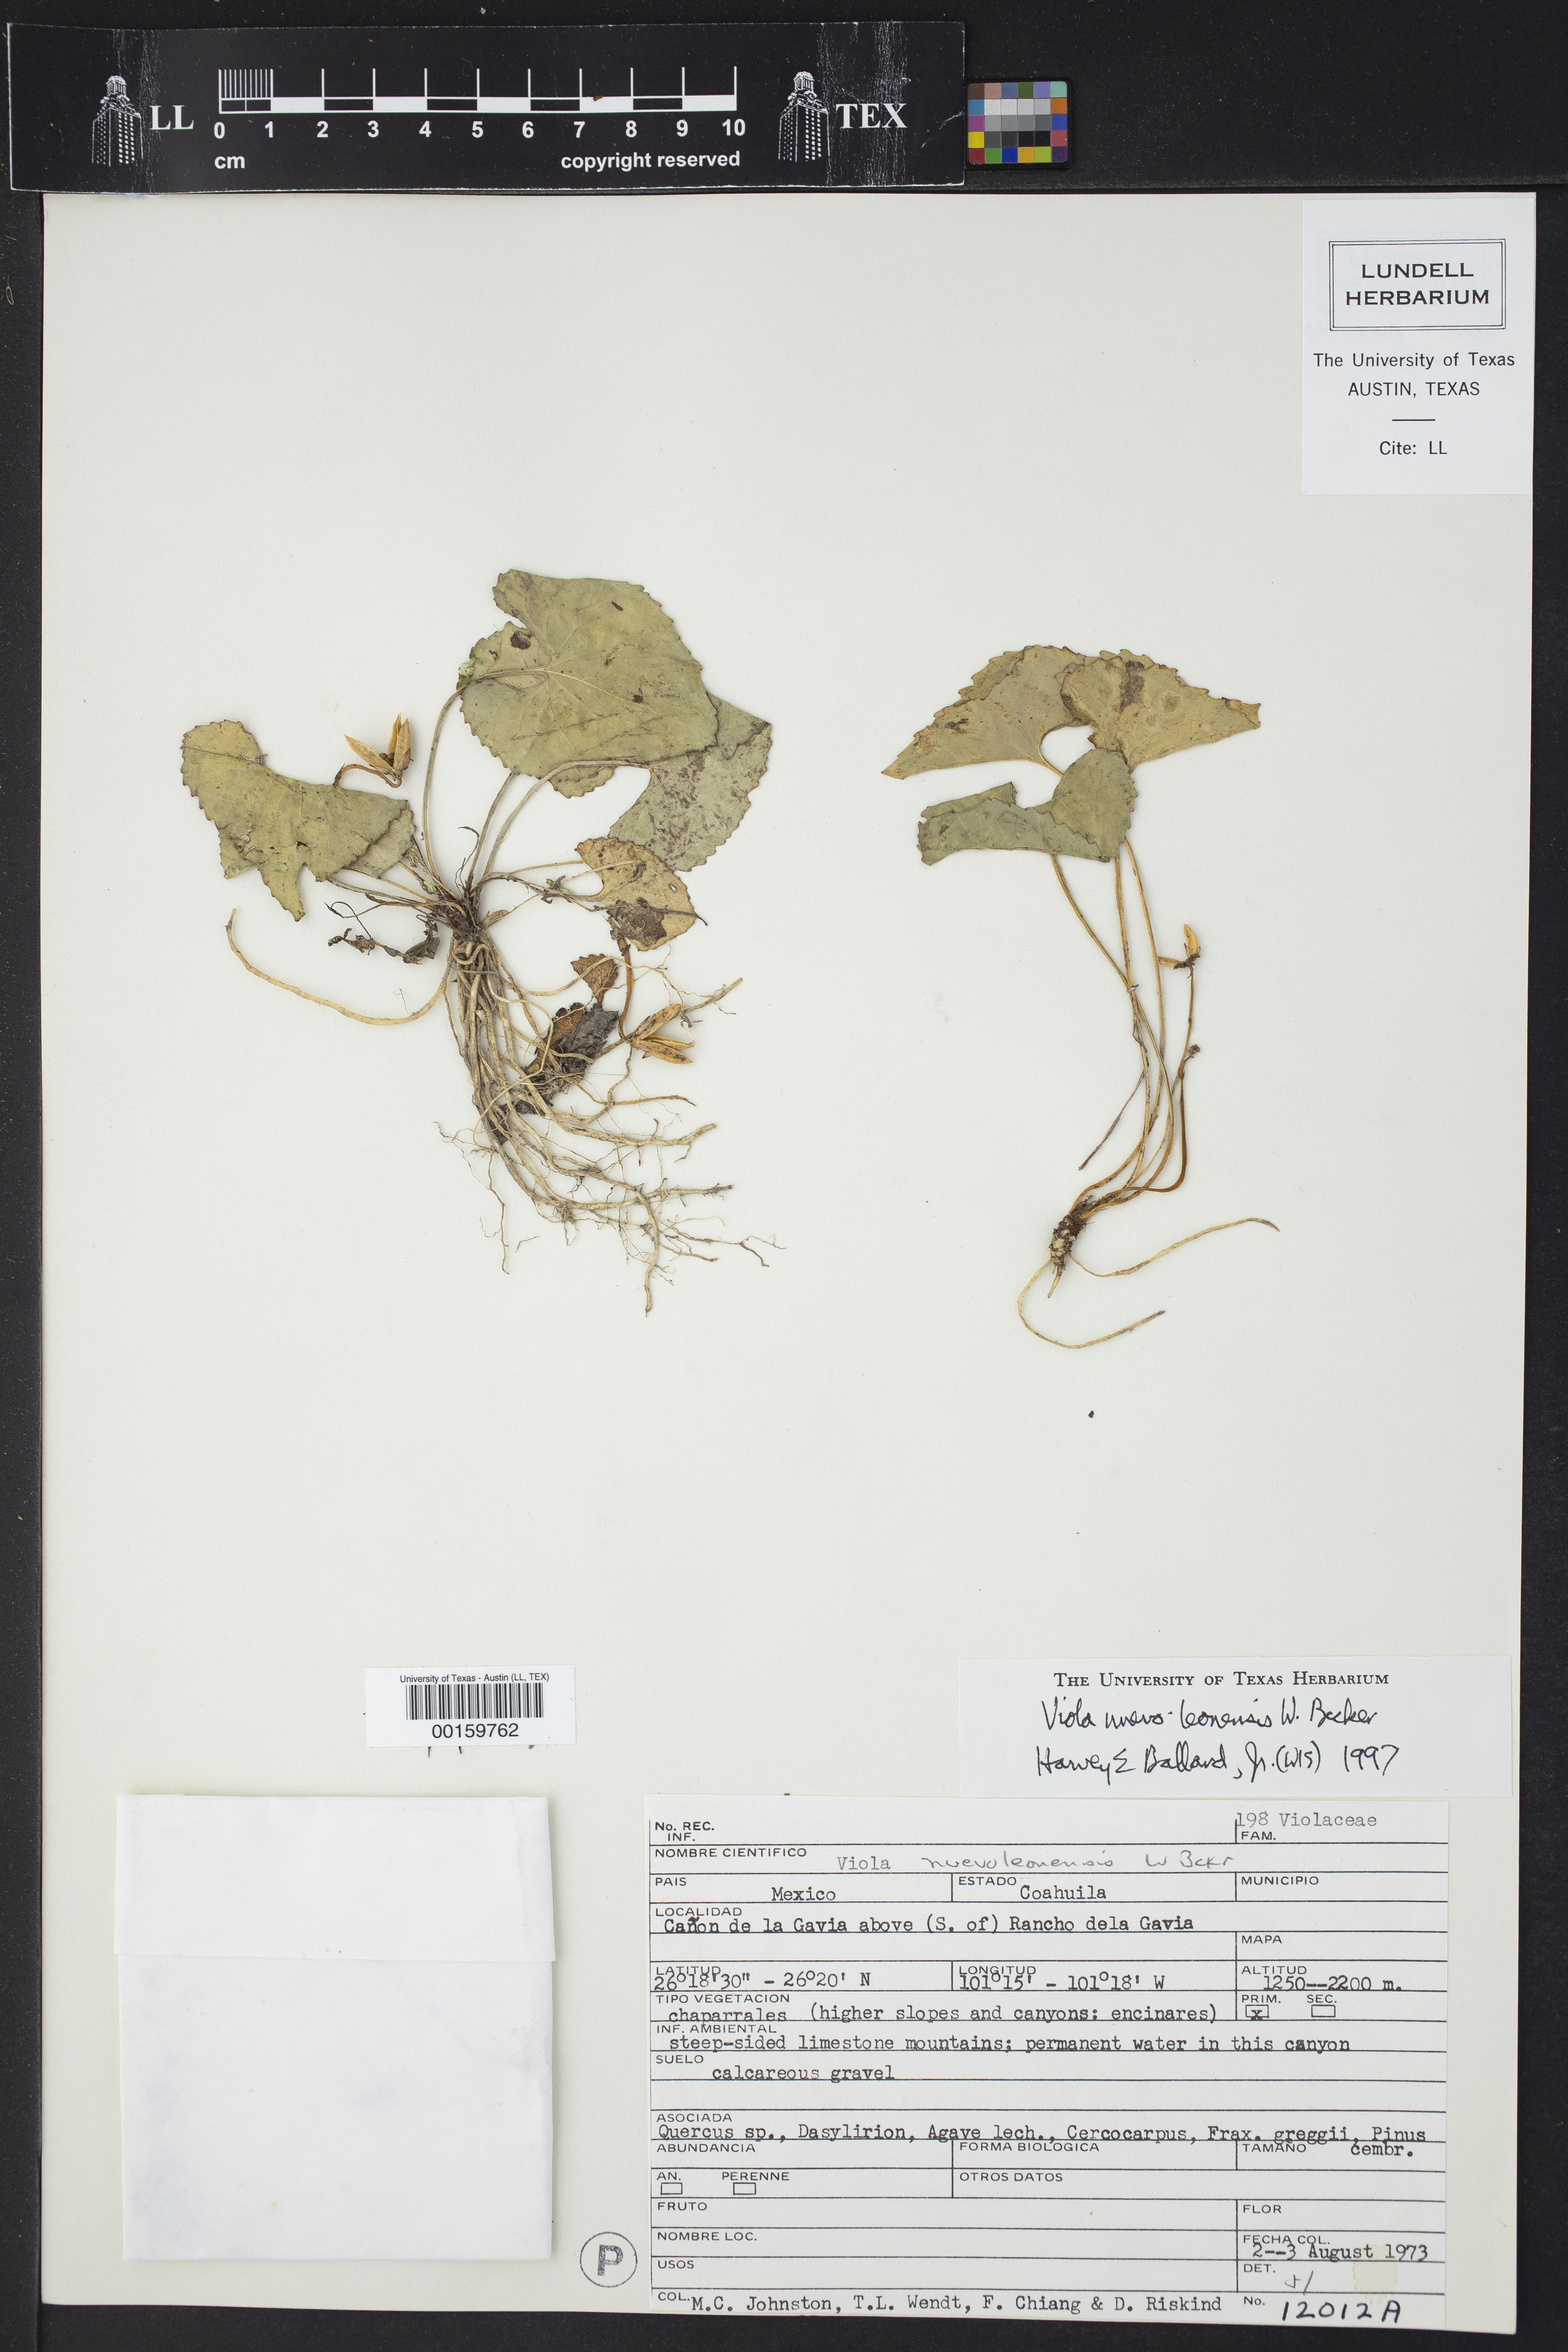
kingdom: Plantae
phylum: Tracheophyta
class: Magnoliopsida
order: Malpighiales
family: Violaceae
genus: Viola
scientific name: Viola nuevoleonensis
